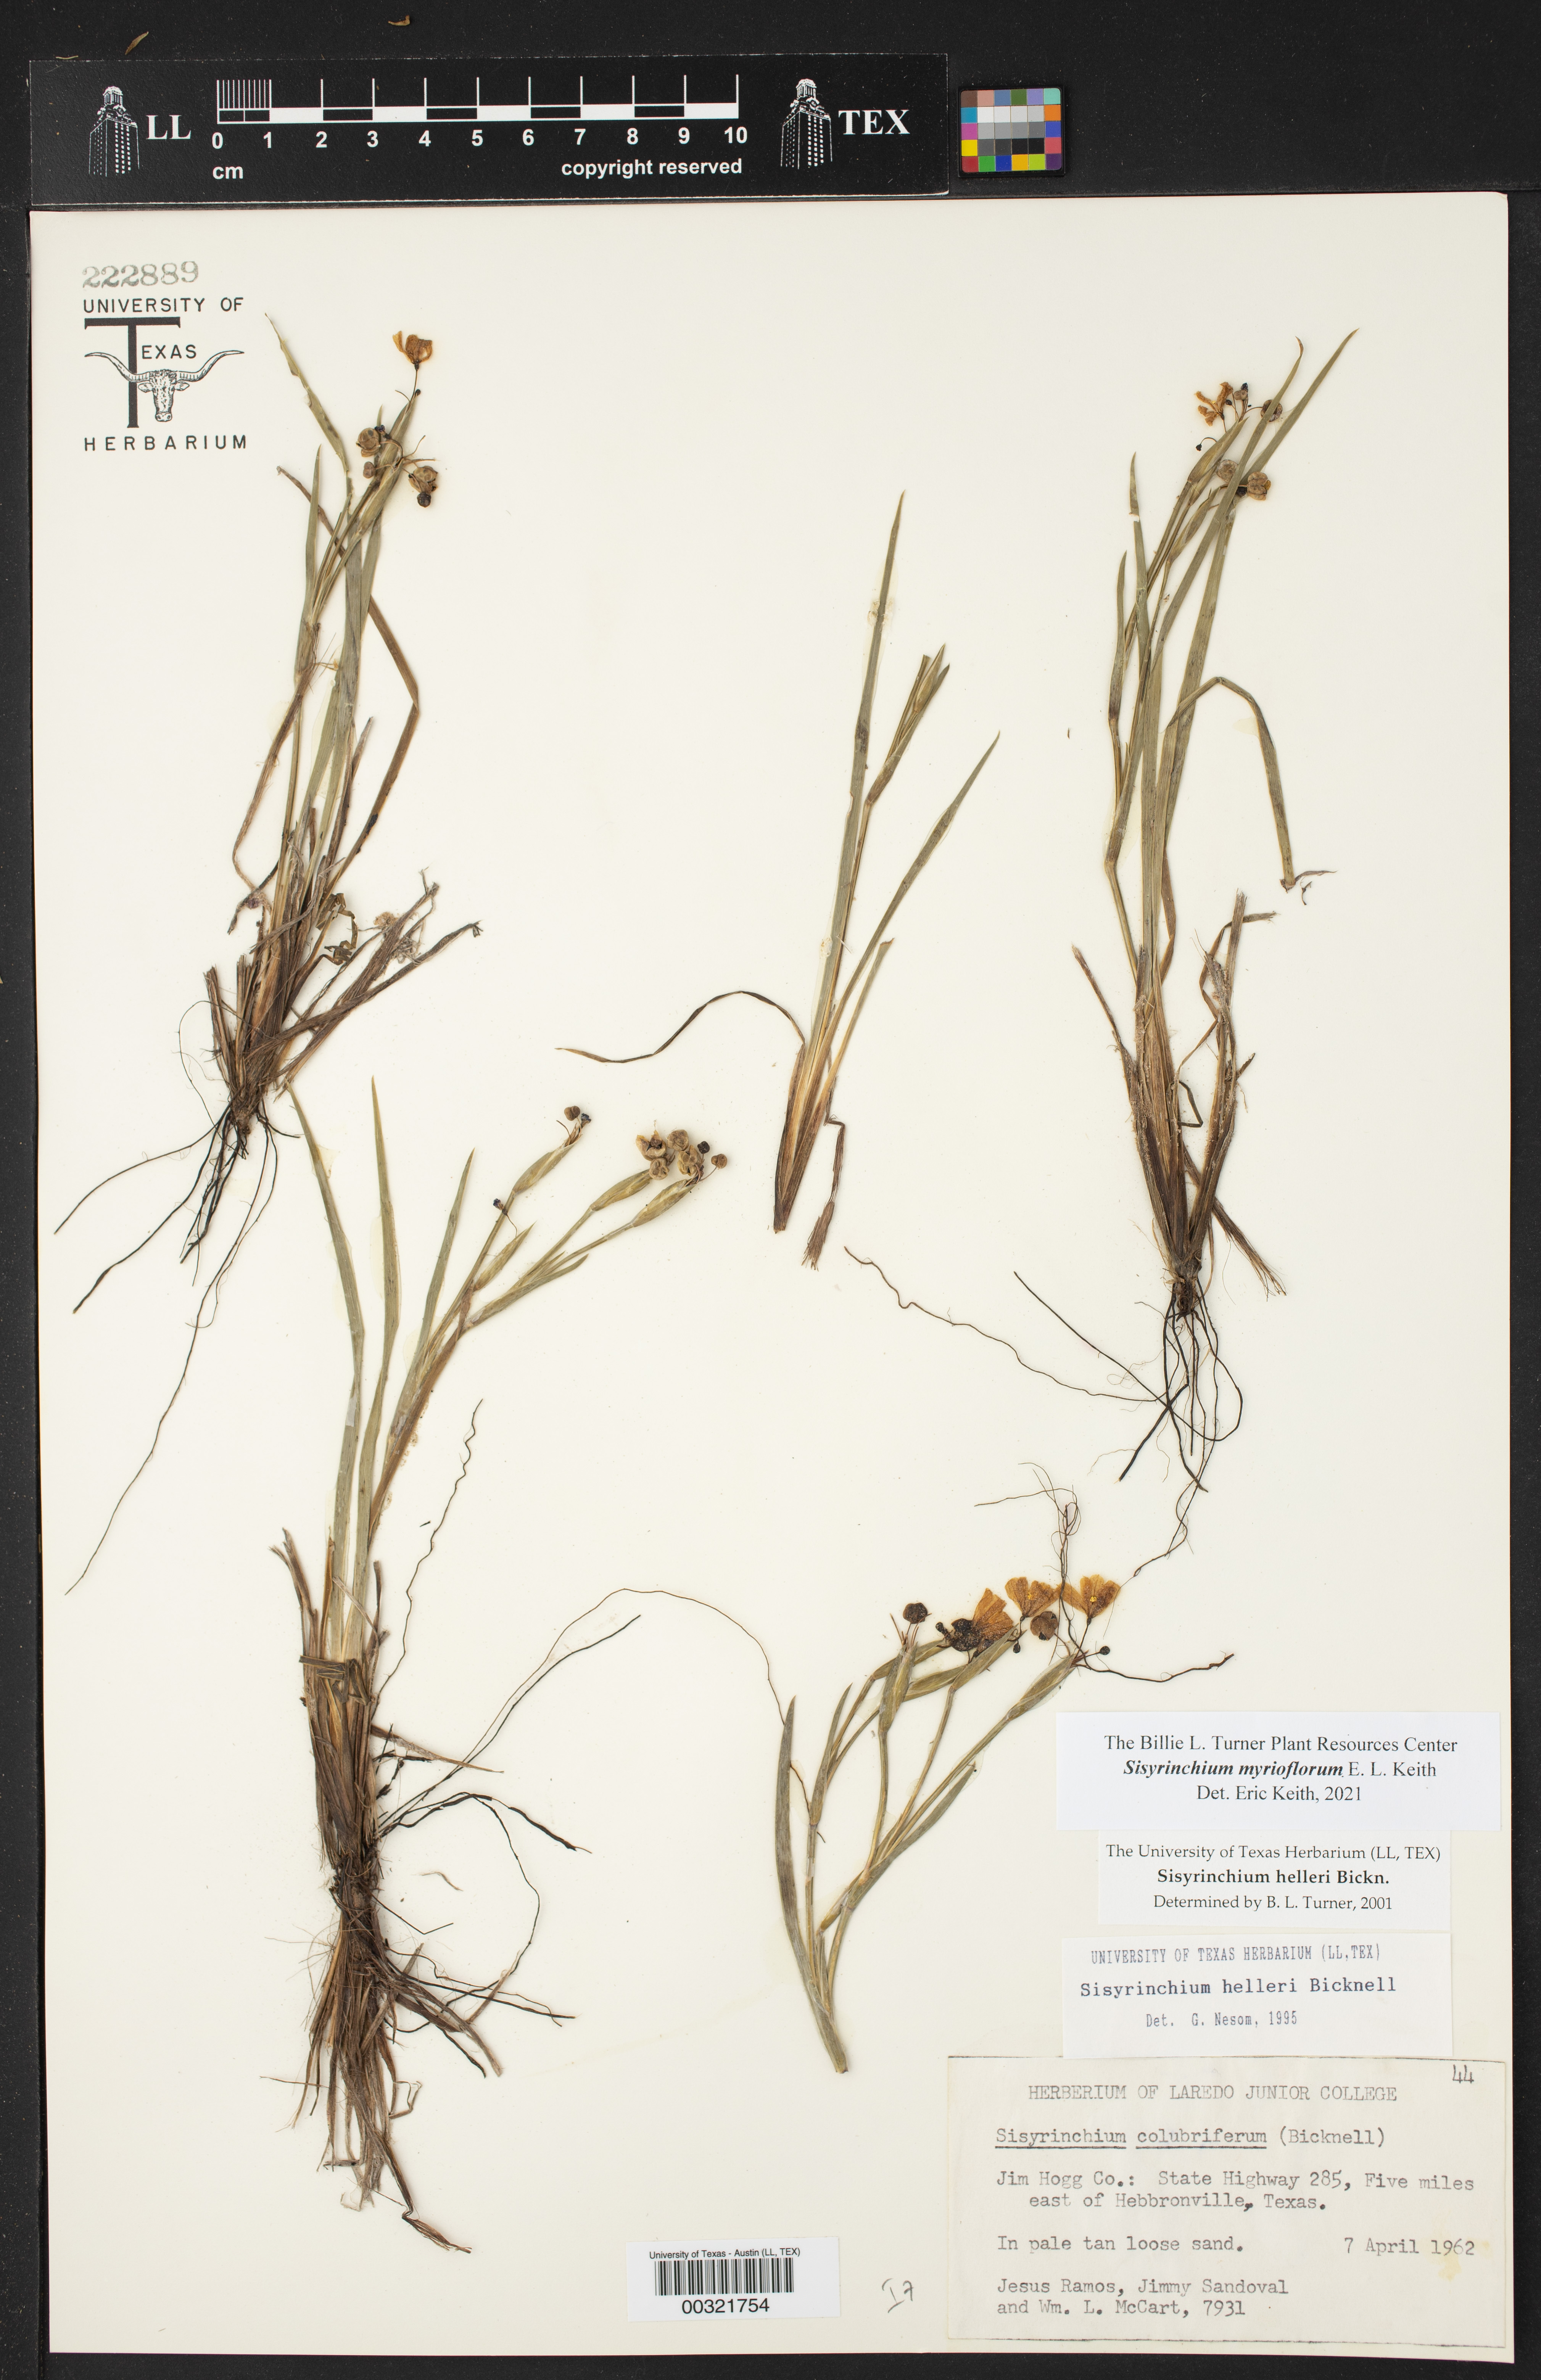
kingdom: Plantae
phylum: Tracheophyta
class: Liliopsida
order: Asparagales
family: Iridaceae
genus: Sisyrinchium
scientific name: Sisyrinchium
